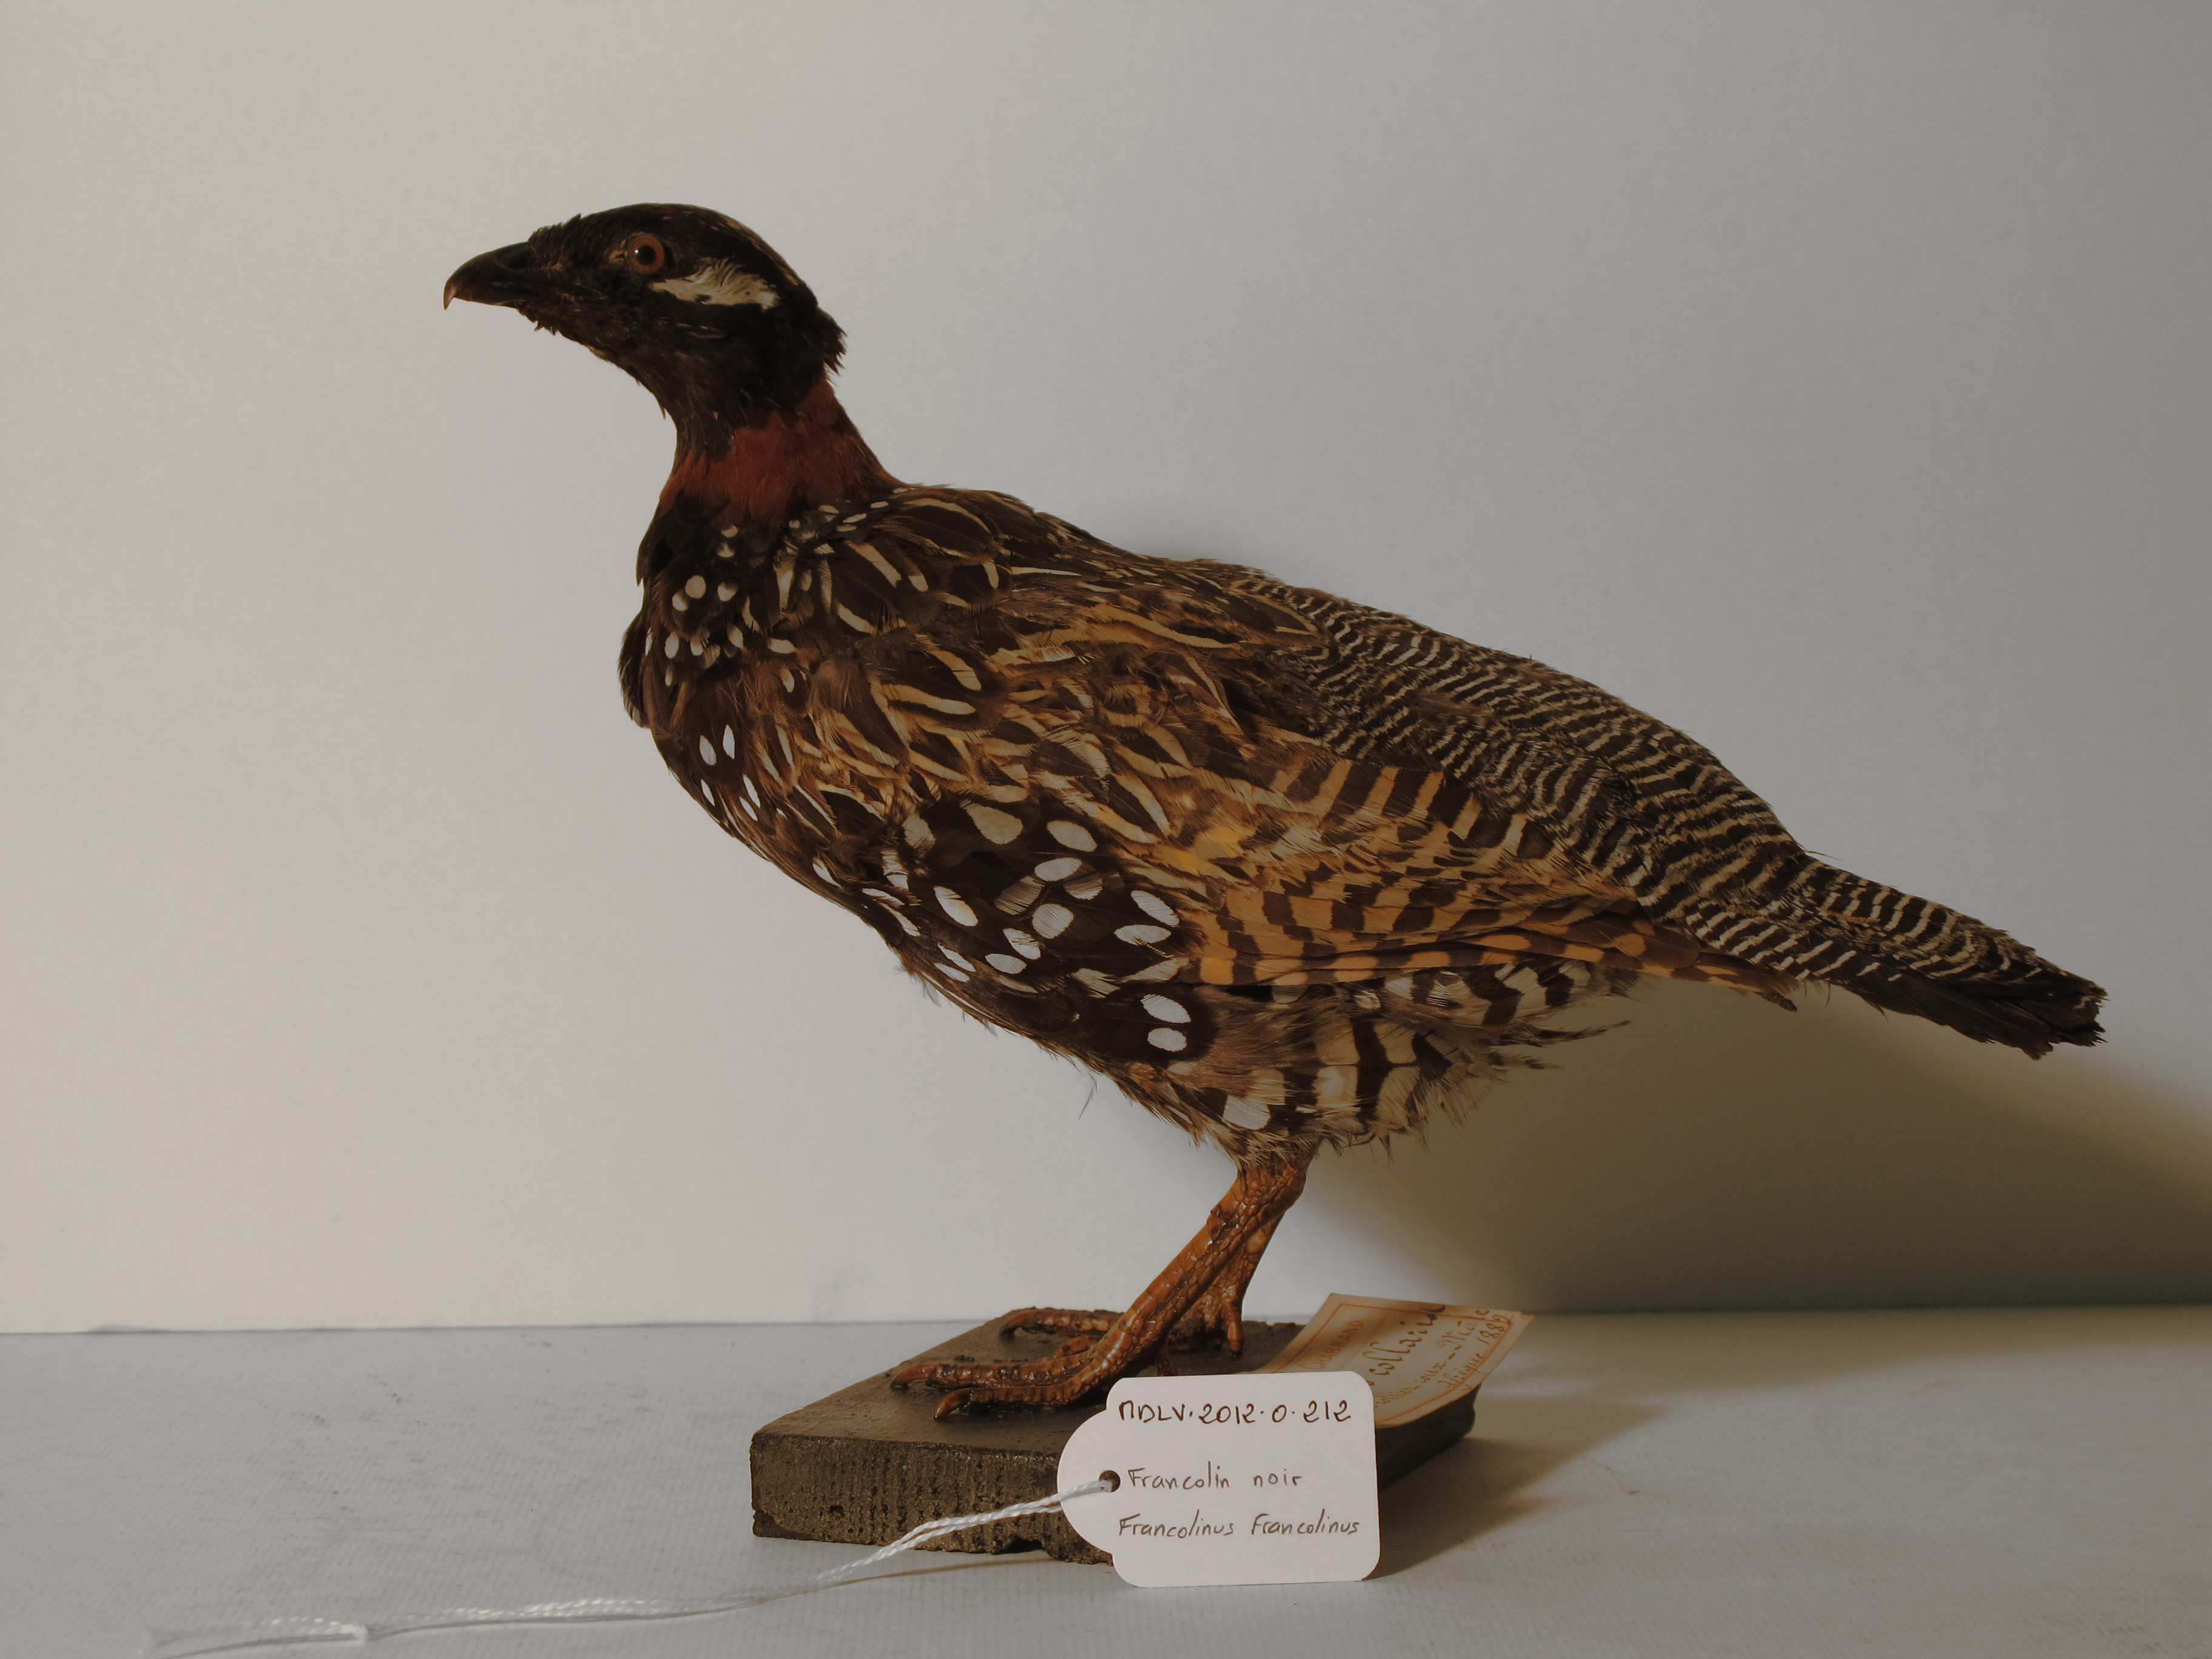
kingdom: Animalia
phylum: Chordata
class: Aves
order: Galliformes
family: Phasianidae
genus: Francolinus
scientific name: Francolinus francolinus
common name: Black Francolin
